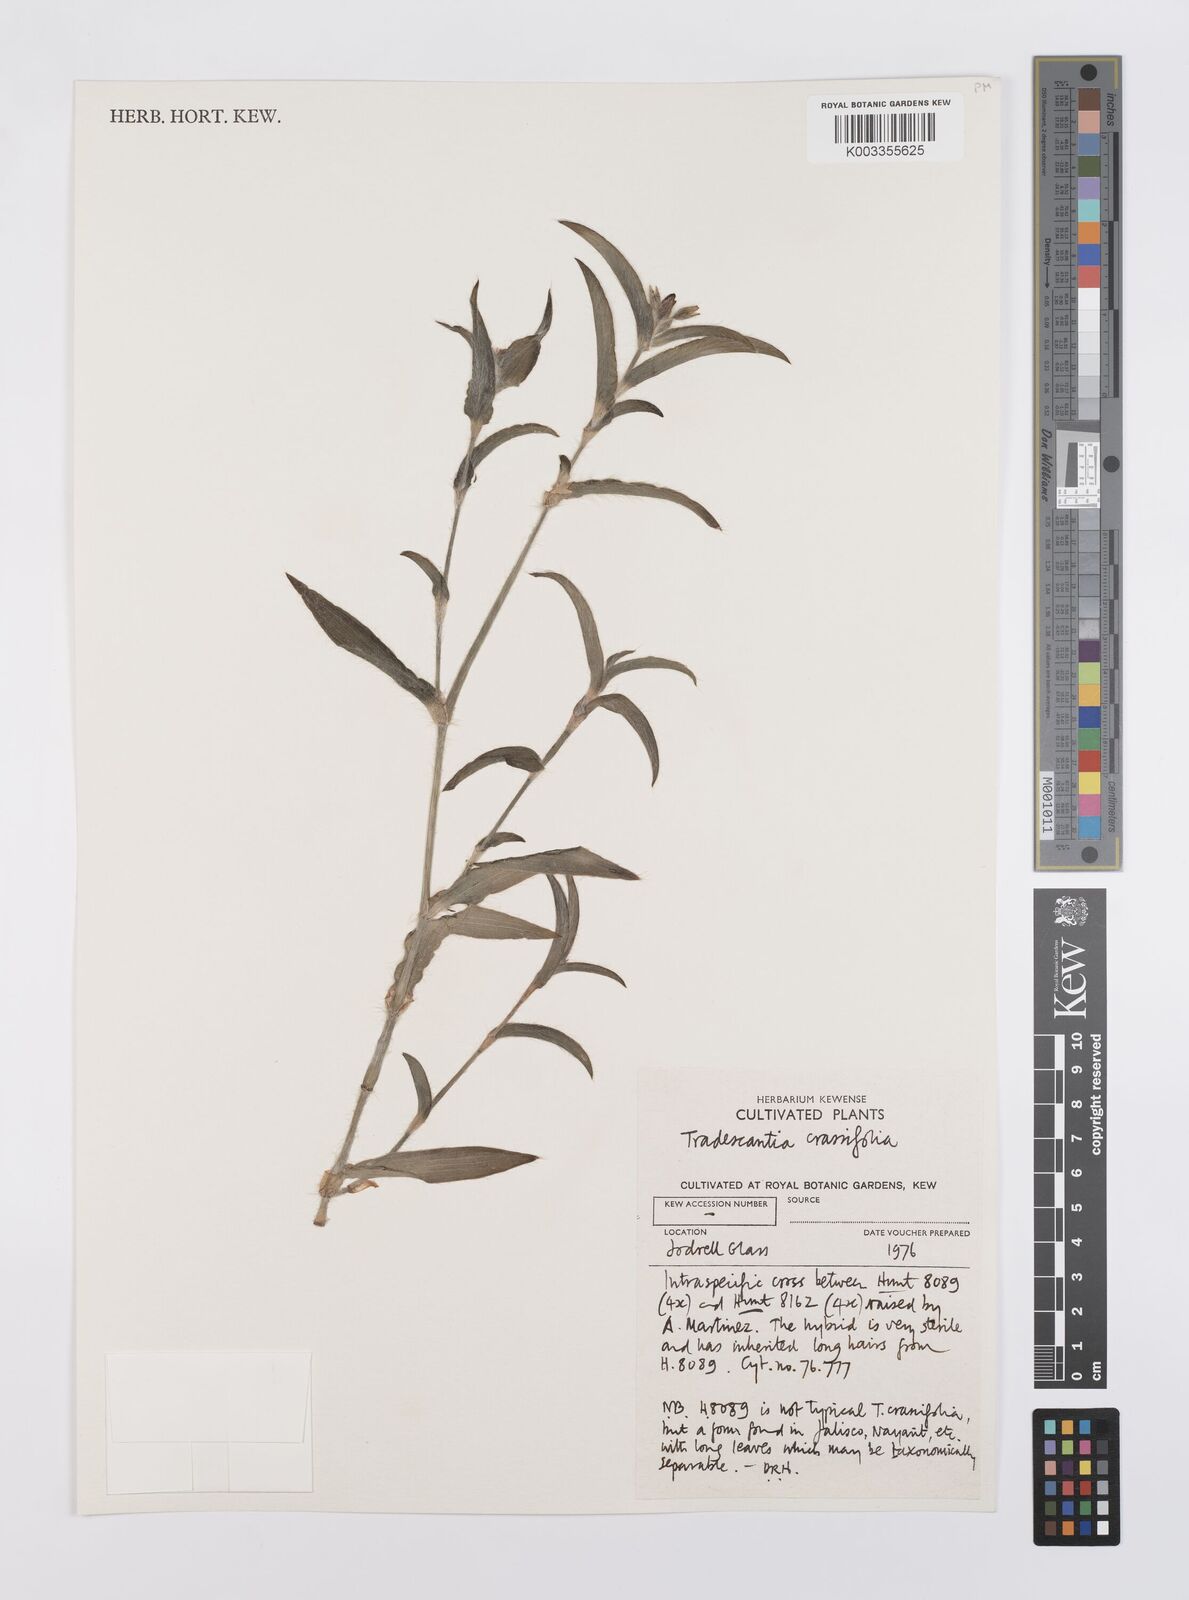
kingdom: Plantae
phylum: Tracheophyta
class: Liliopsida
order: Commelinales
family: Commelinaceae
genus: Tradescantia
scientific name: Tradescantia
